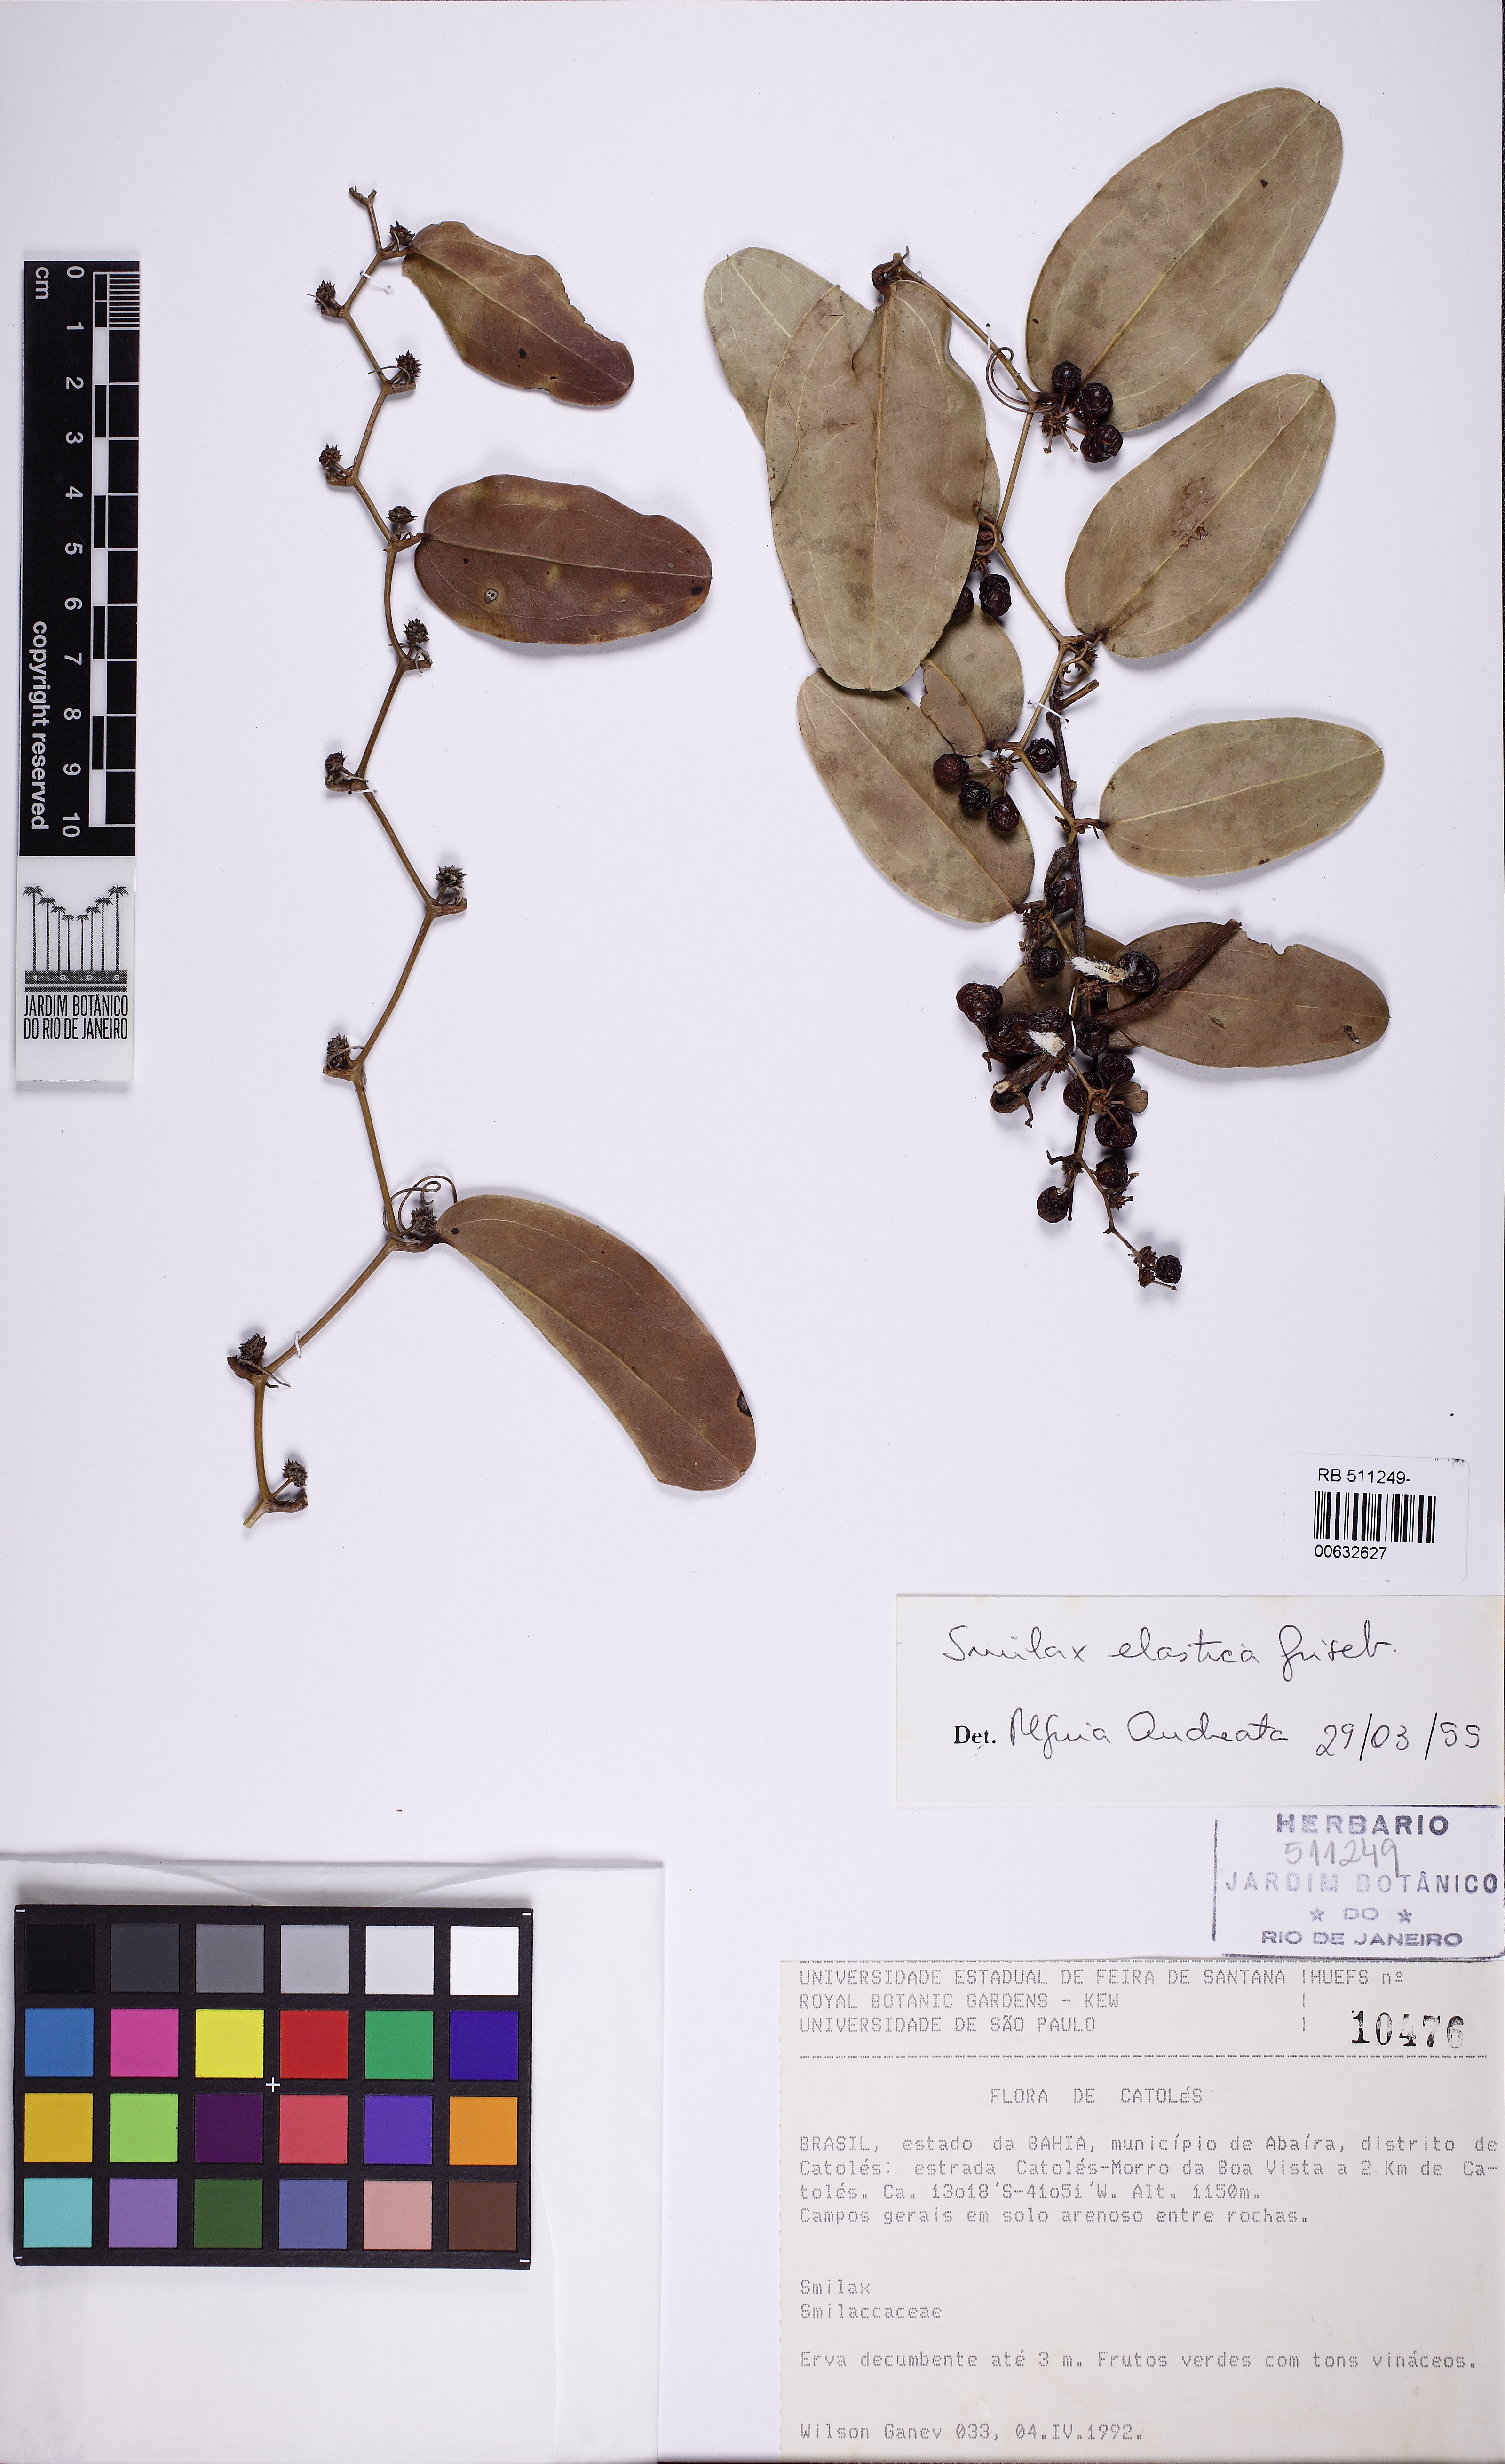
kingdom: Plantae
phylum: Tracheophyta
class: Liliopsida
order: Liliales
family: Smilacaceae
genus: Smilax
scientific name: Smilax elastica
